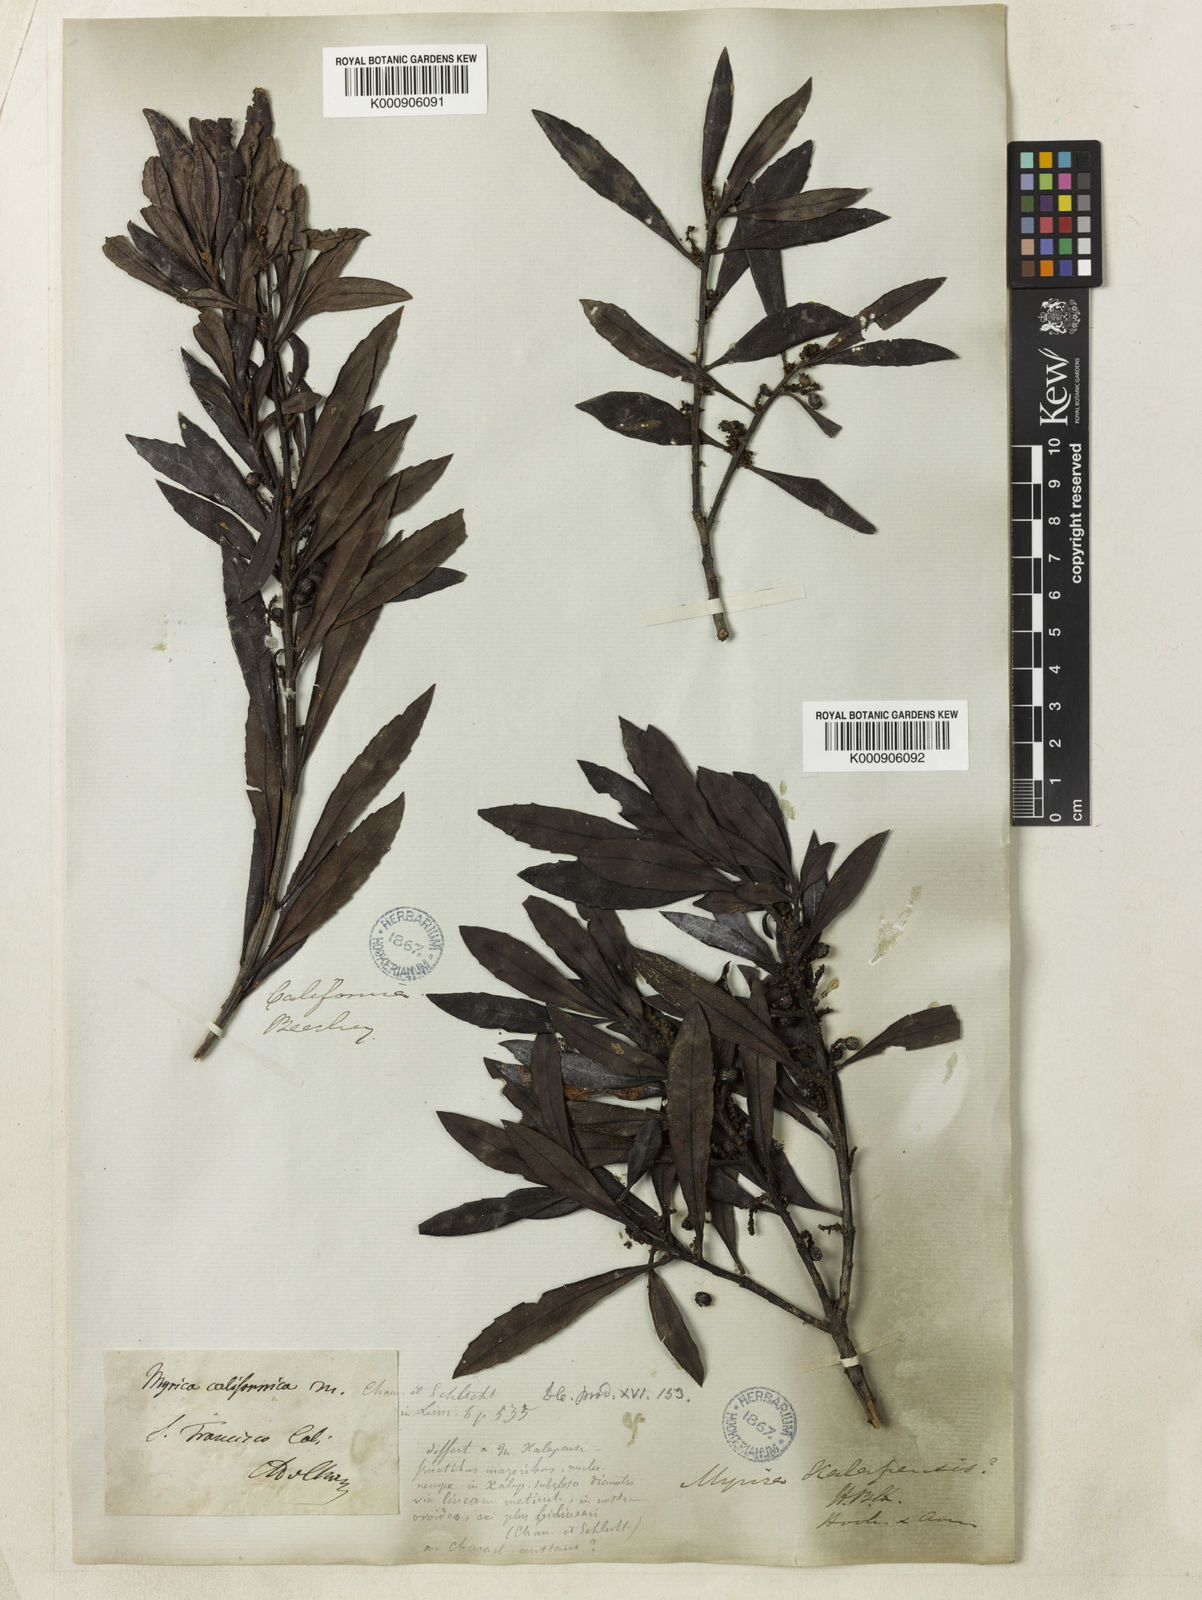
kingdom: Plantae
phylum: Tracheophyta
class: Magnoliopsida
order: Fagales
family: Myricaceae
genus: Morella
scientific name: Morella californica
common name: California wax-myrtle
